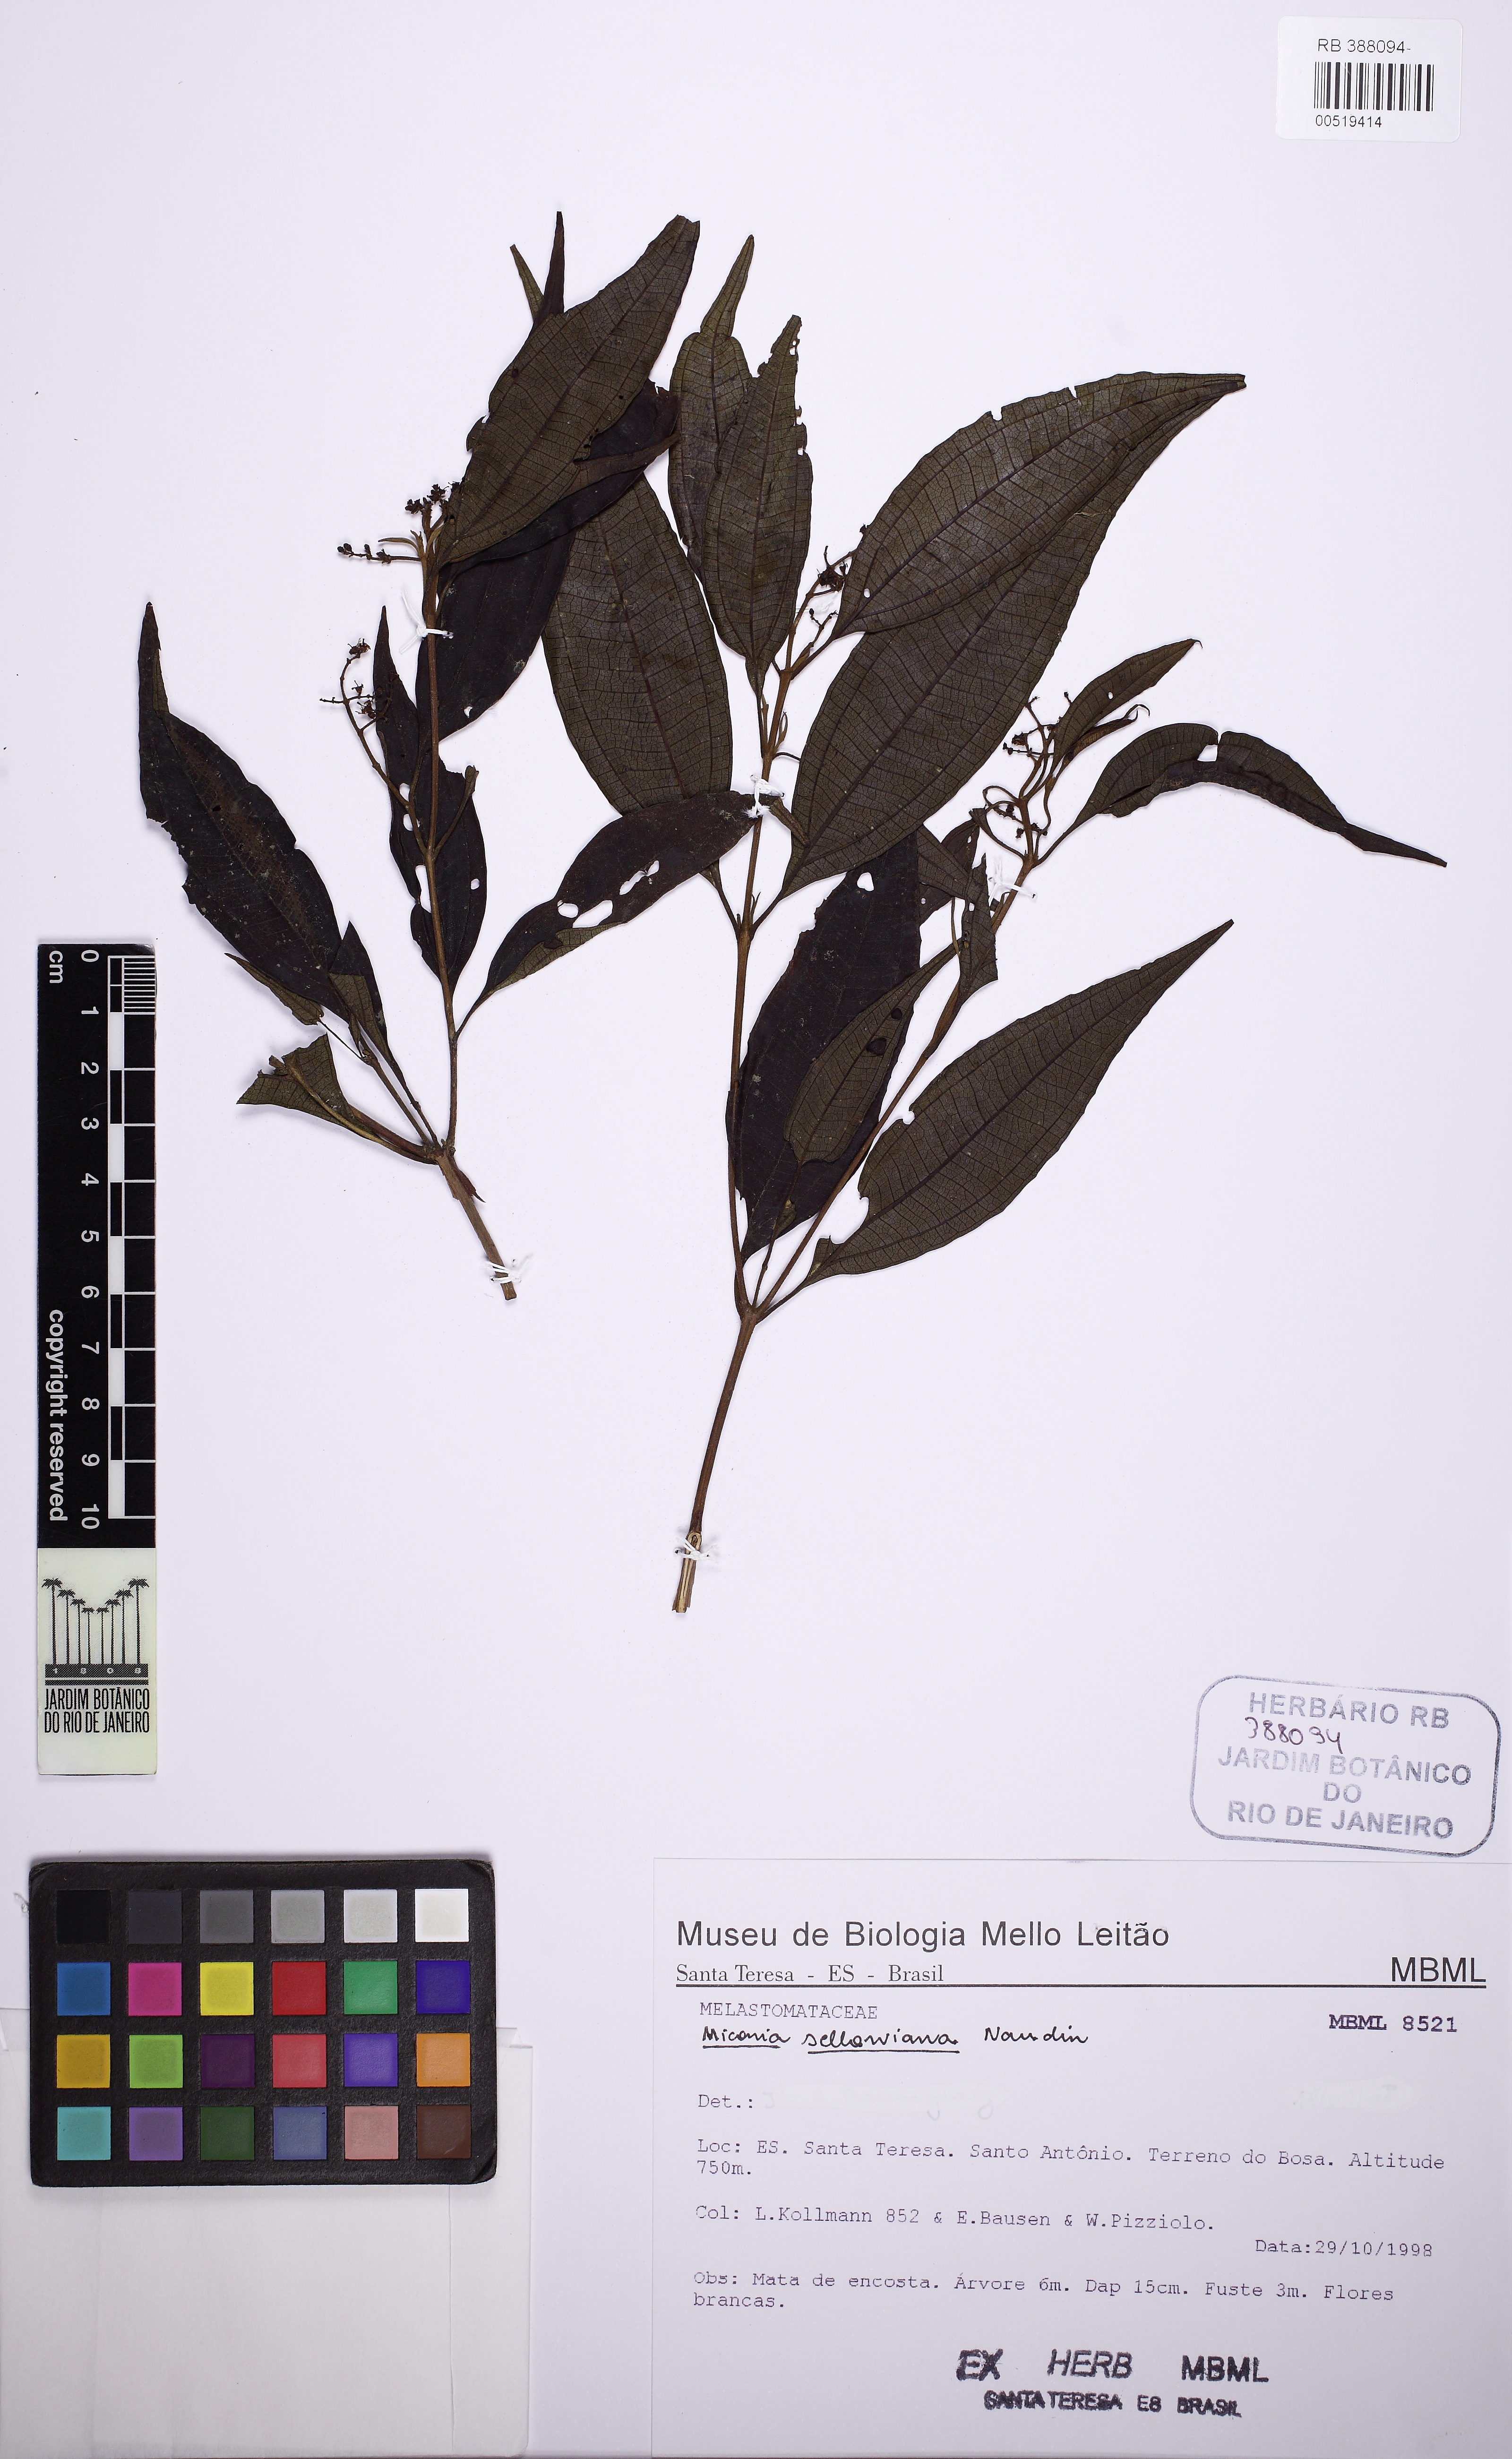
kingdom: Plantae
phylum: Tracheophyta
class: Magnoliopsida
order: Myrtales
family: Melastomataceae
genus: Miconia
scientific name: Miconia sellowiana
